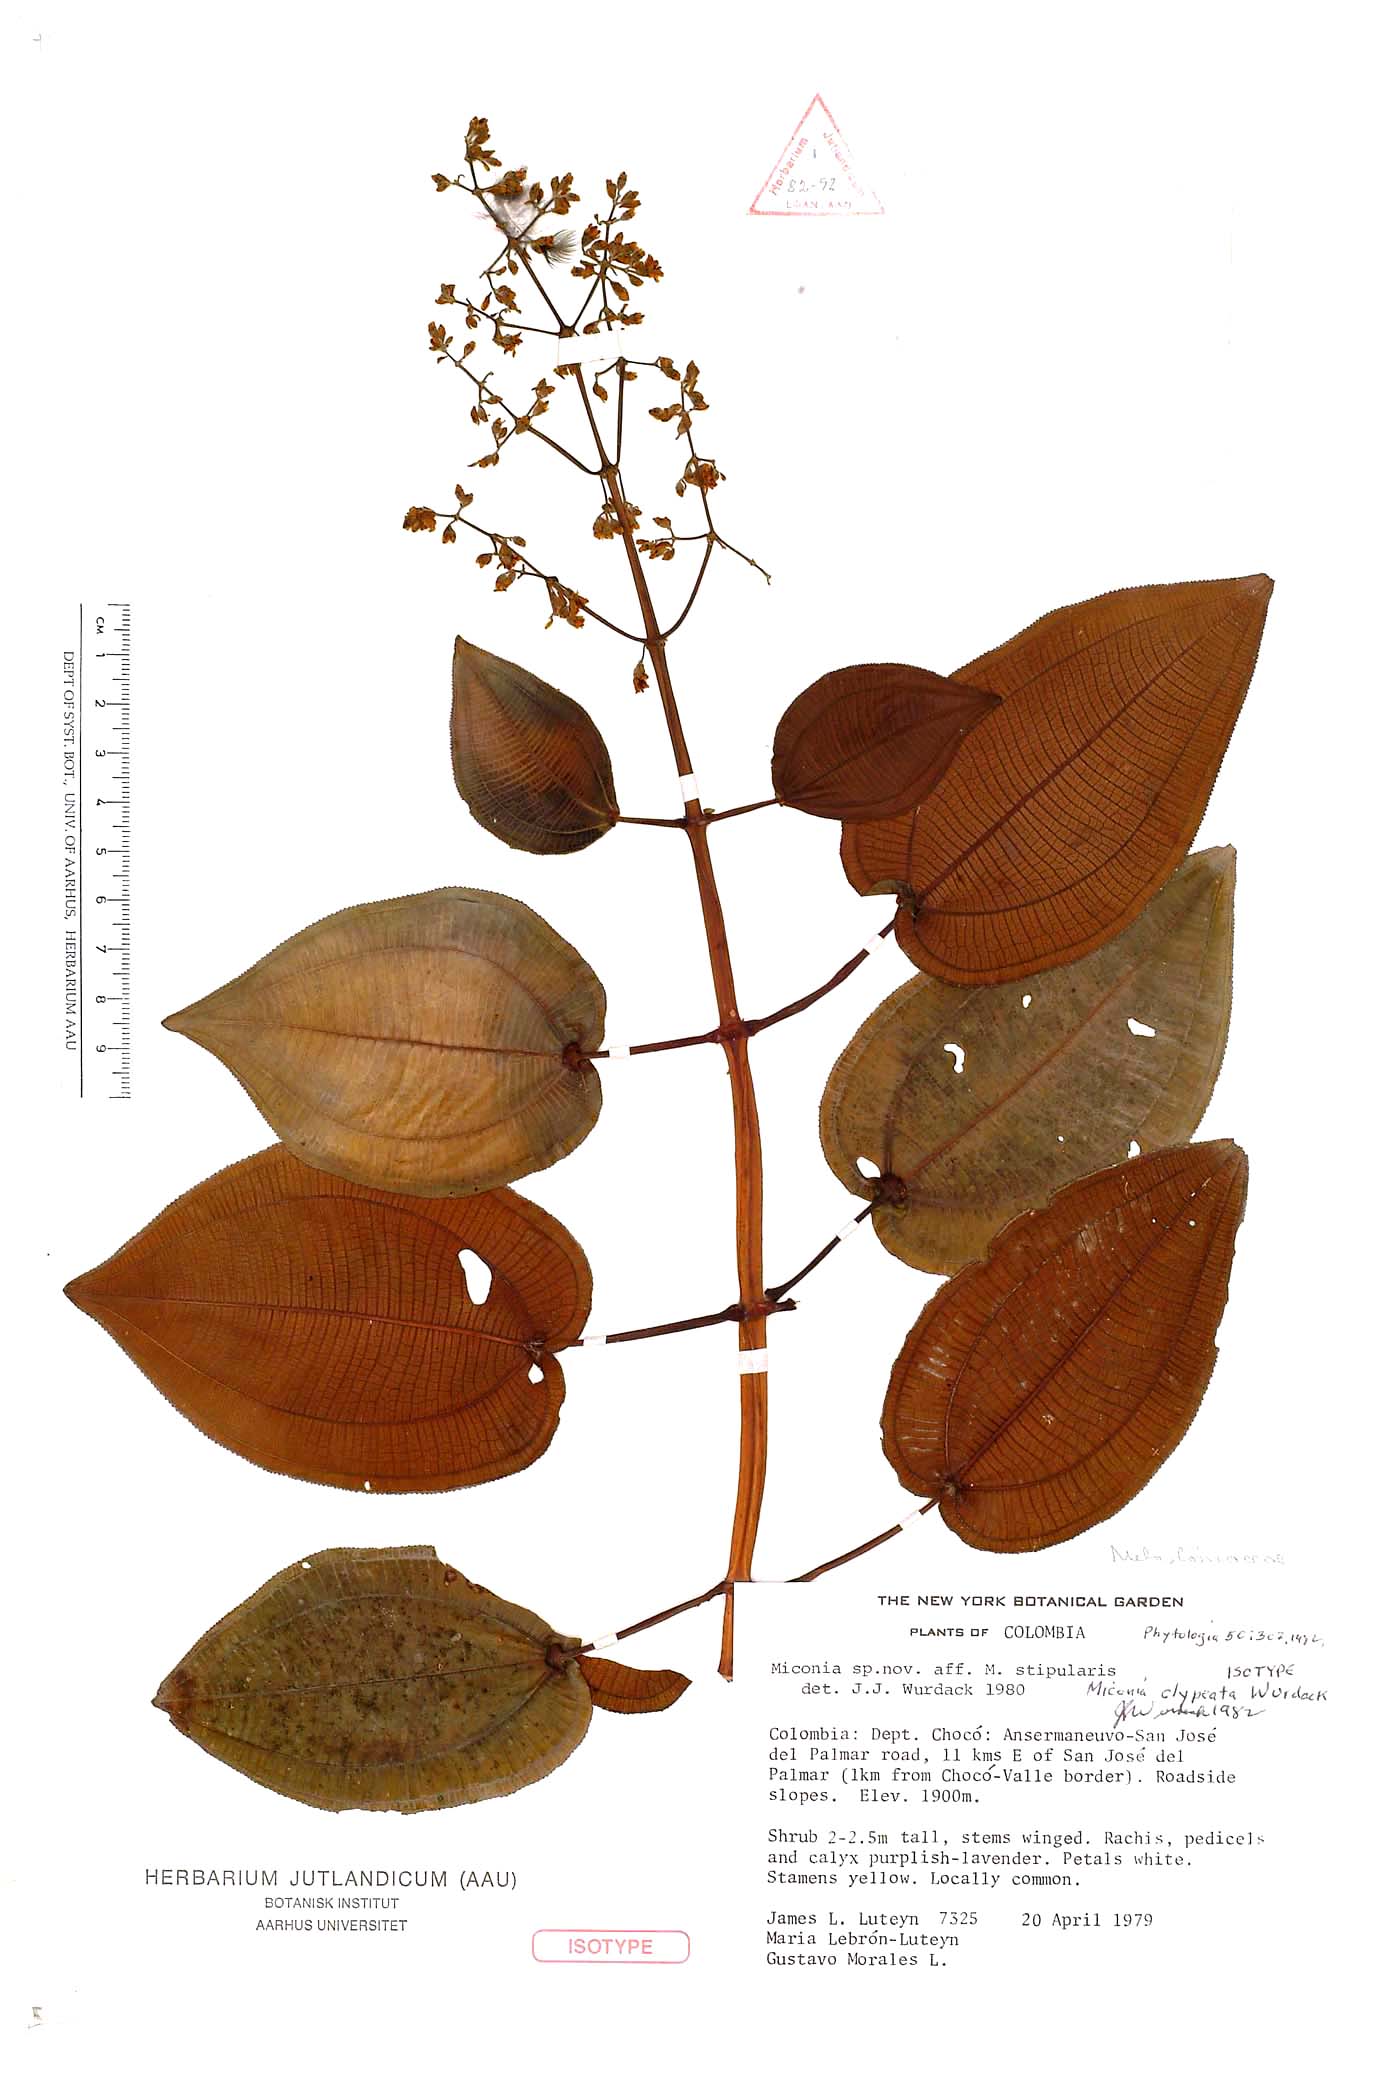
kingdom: Plantae
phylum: Tracheophyta
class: Magnoliopsida
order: Myrtales
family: Melastomataceae
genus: Miconia
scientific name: Miconia clypeata
